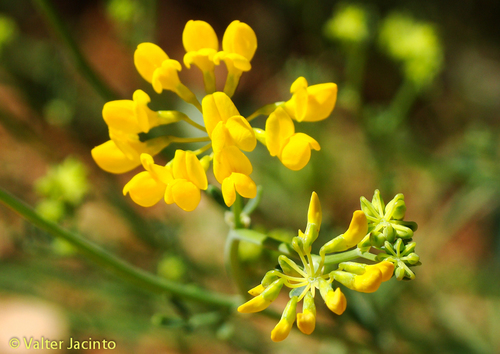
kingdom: Plantae
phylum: Tracheophyta
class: Magnoliopsida
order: Fabales
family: Fabaceae
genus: Coronilla
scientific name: Coronilla juncea
